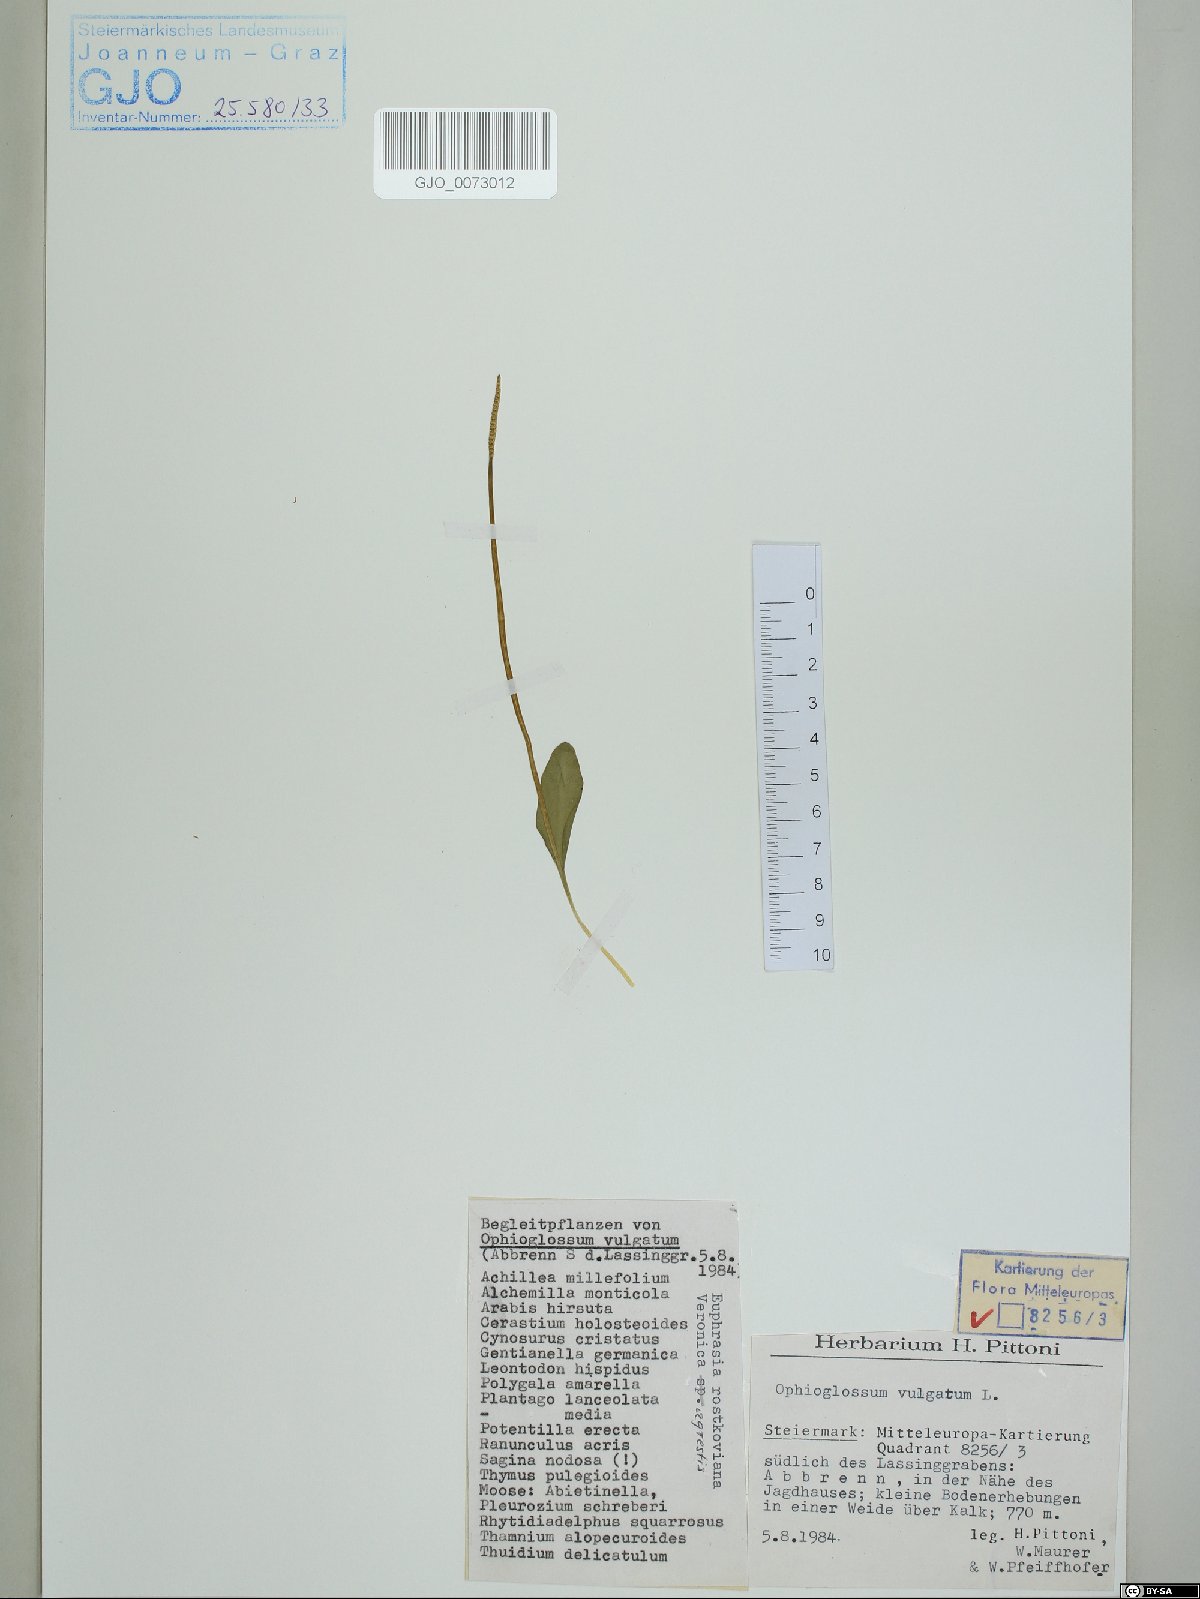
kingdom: Plantae
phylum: Tracheophyta
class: Polypodiopsida
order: Ophioglossales
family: Ophioglossaceae
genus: Ophioglossum
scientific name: Ophioglossum vulgatum
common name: Adder's-tongue
